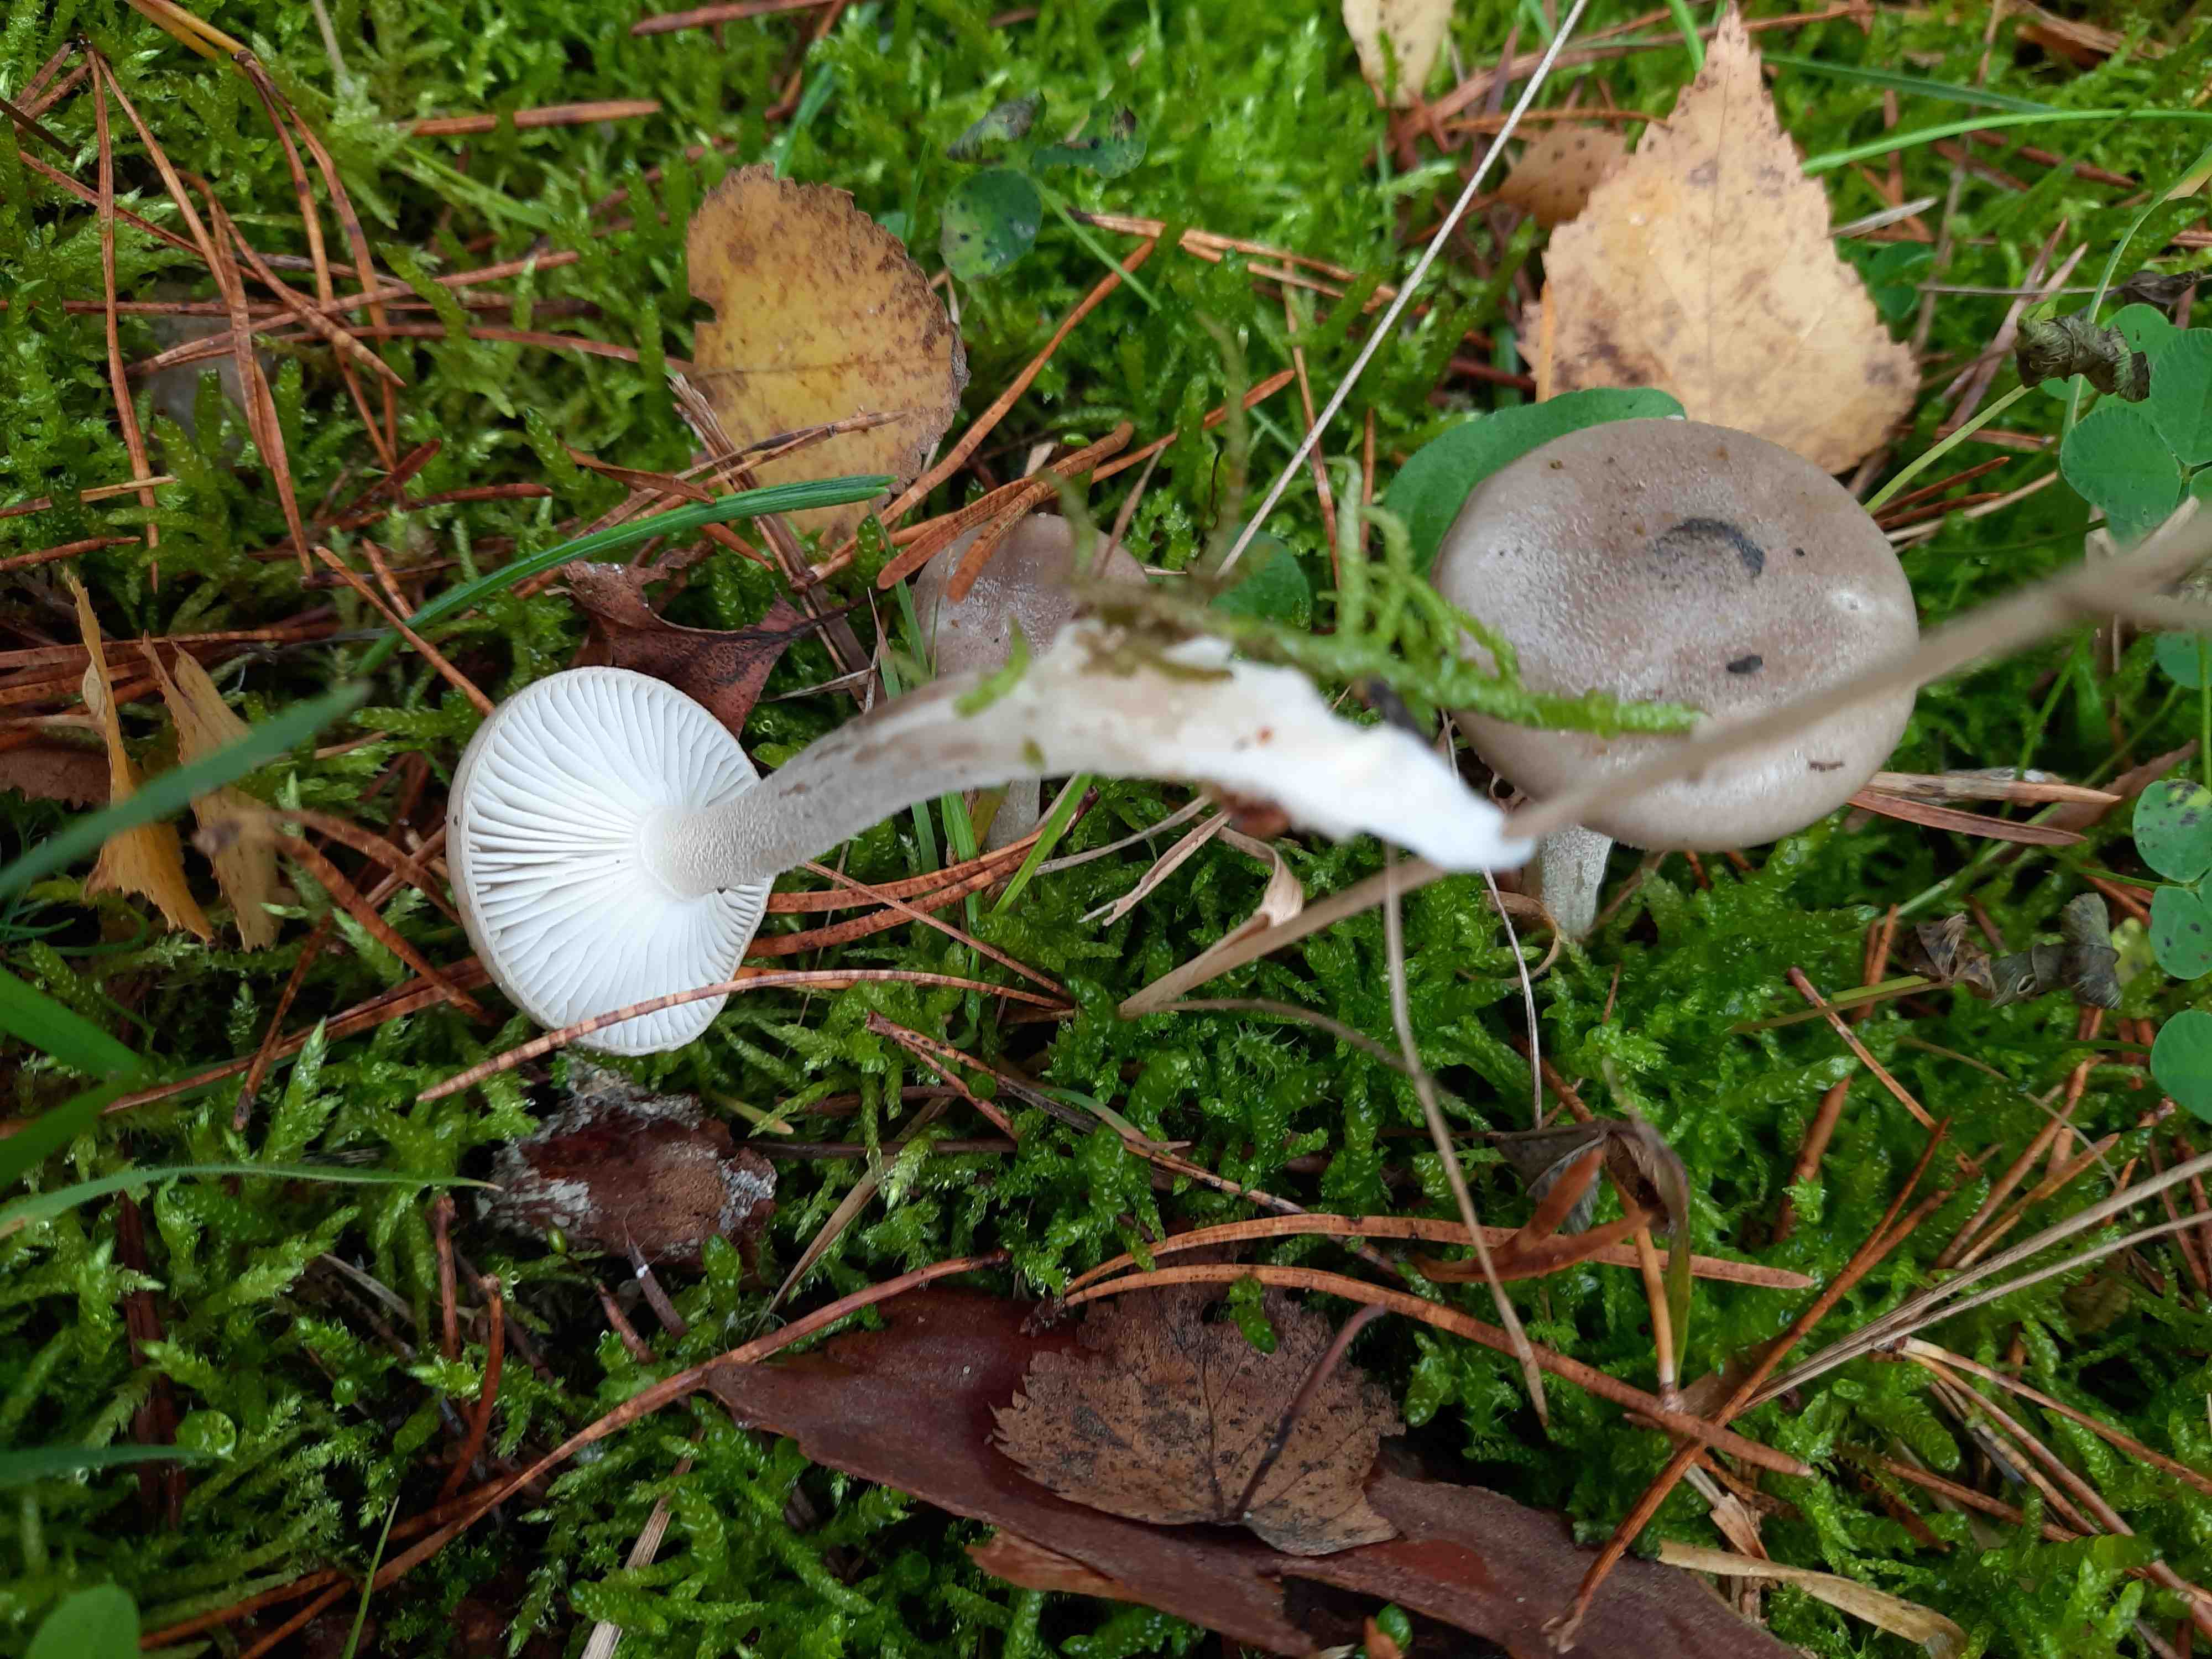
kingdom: Fungi
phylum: Basidiomycota
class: Agaricomycetes
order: Agaricales
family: Hygrophoraceae
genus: Hygrophorus
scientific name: Hygrophorus agathosmus
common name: vellugtende sneglehat
